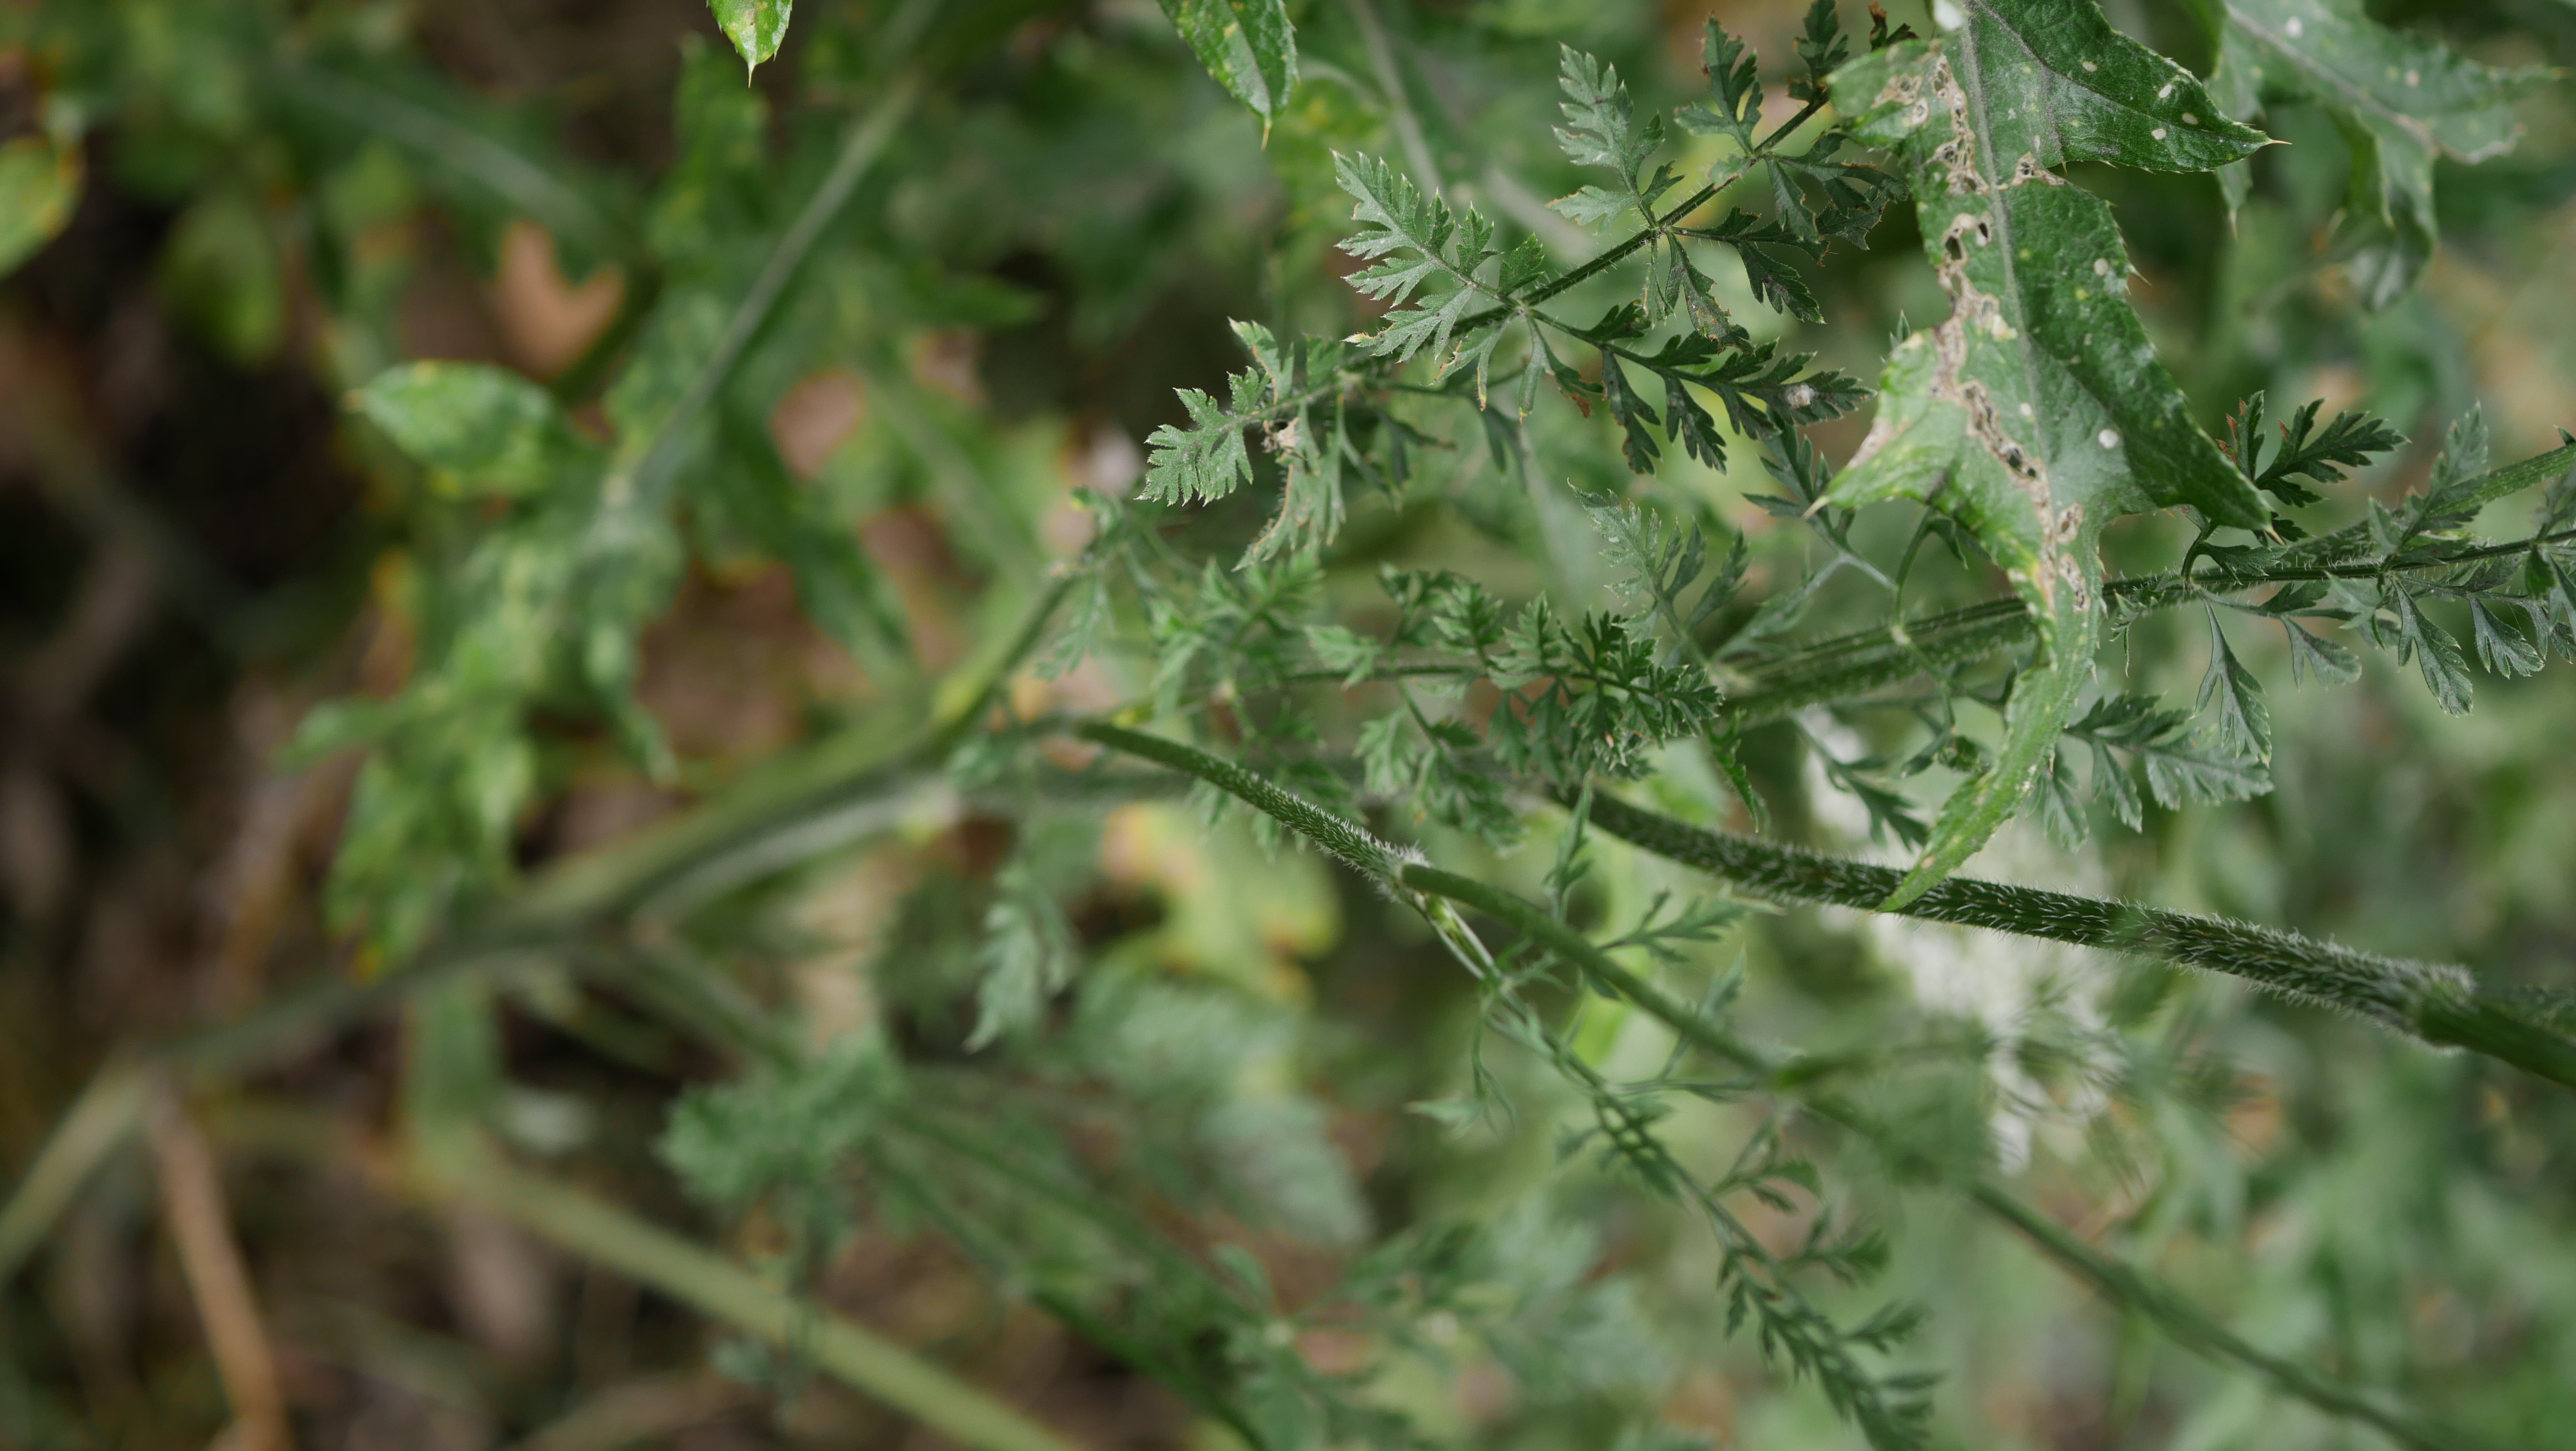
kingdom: Plantae
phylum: Tracheophyta
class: Magnoliopsida
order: Apiales
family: Apiaceae
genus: Daucus
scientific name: Daucus carota
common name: Vild gulerod
